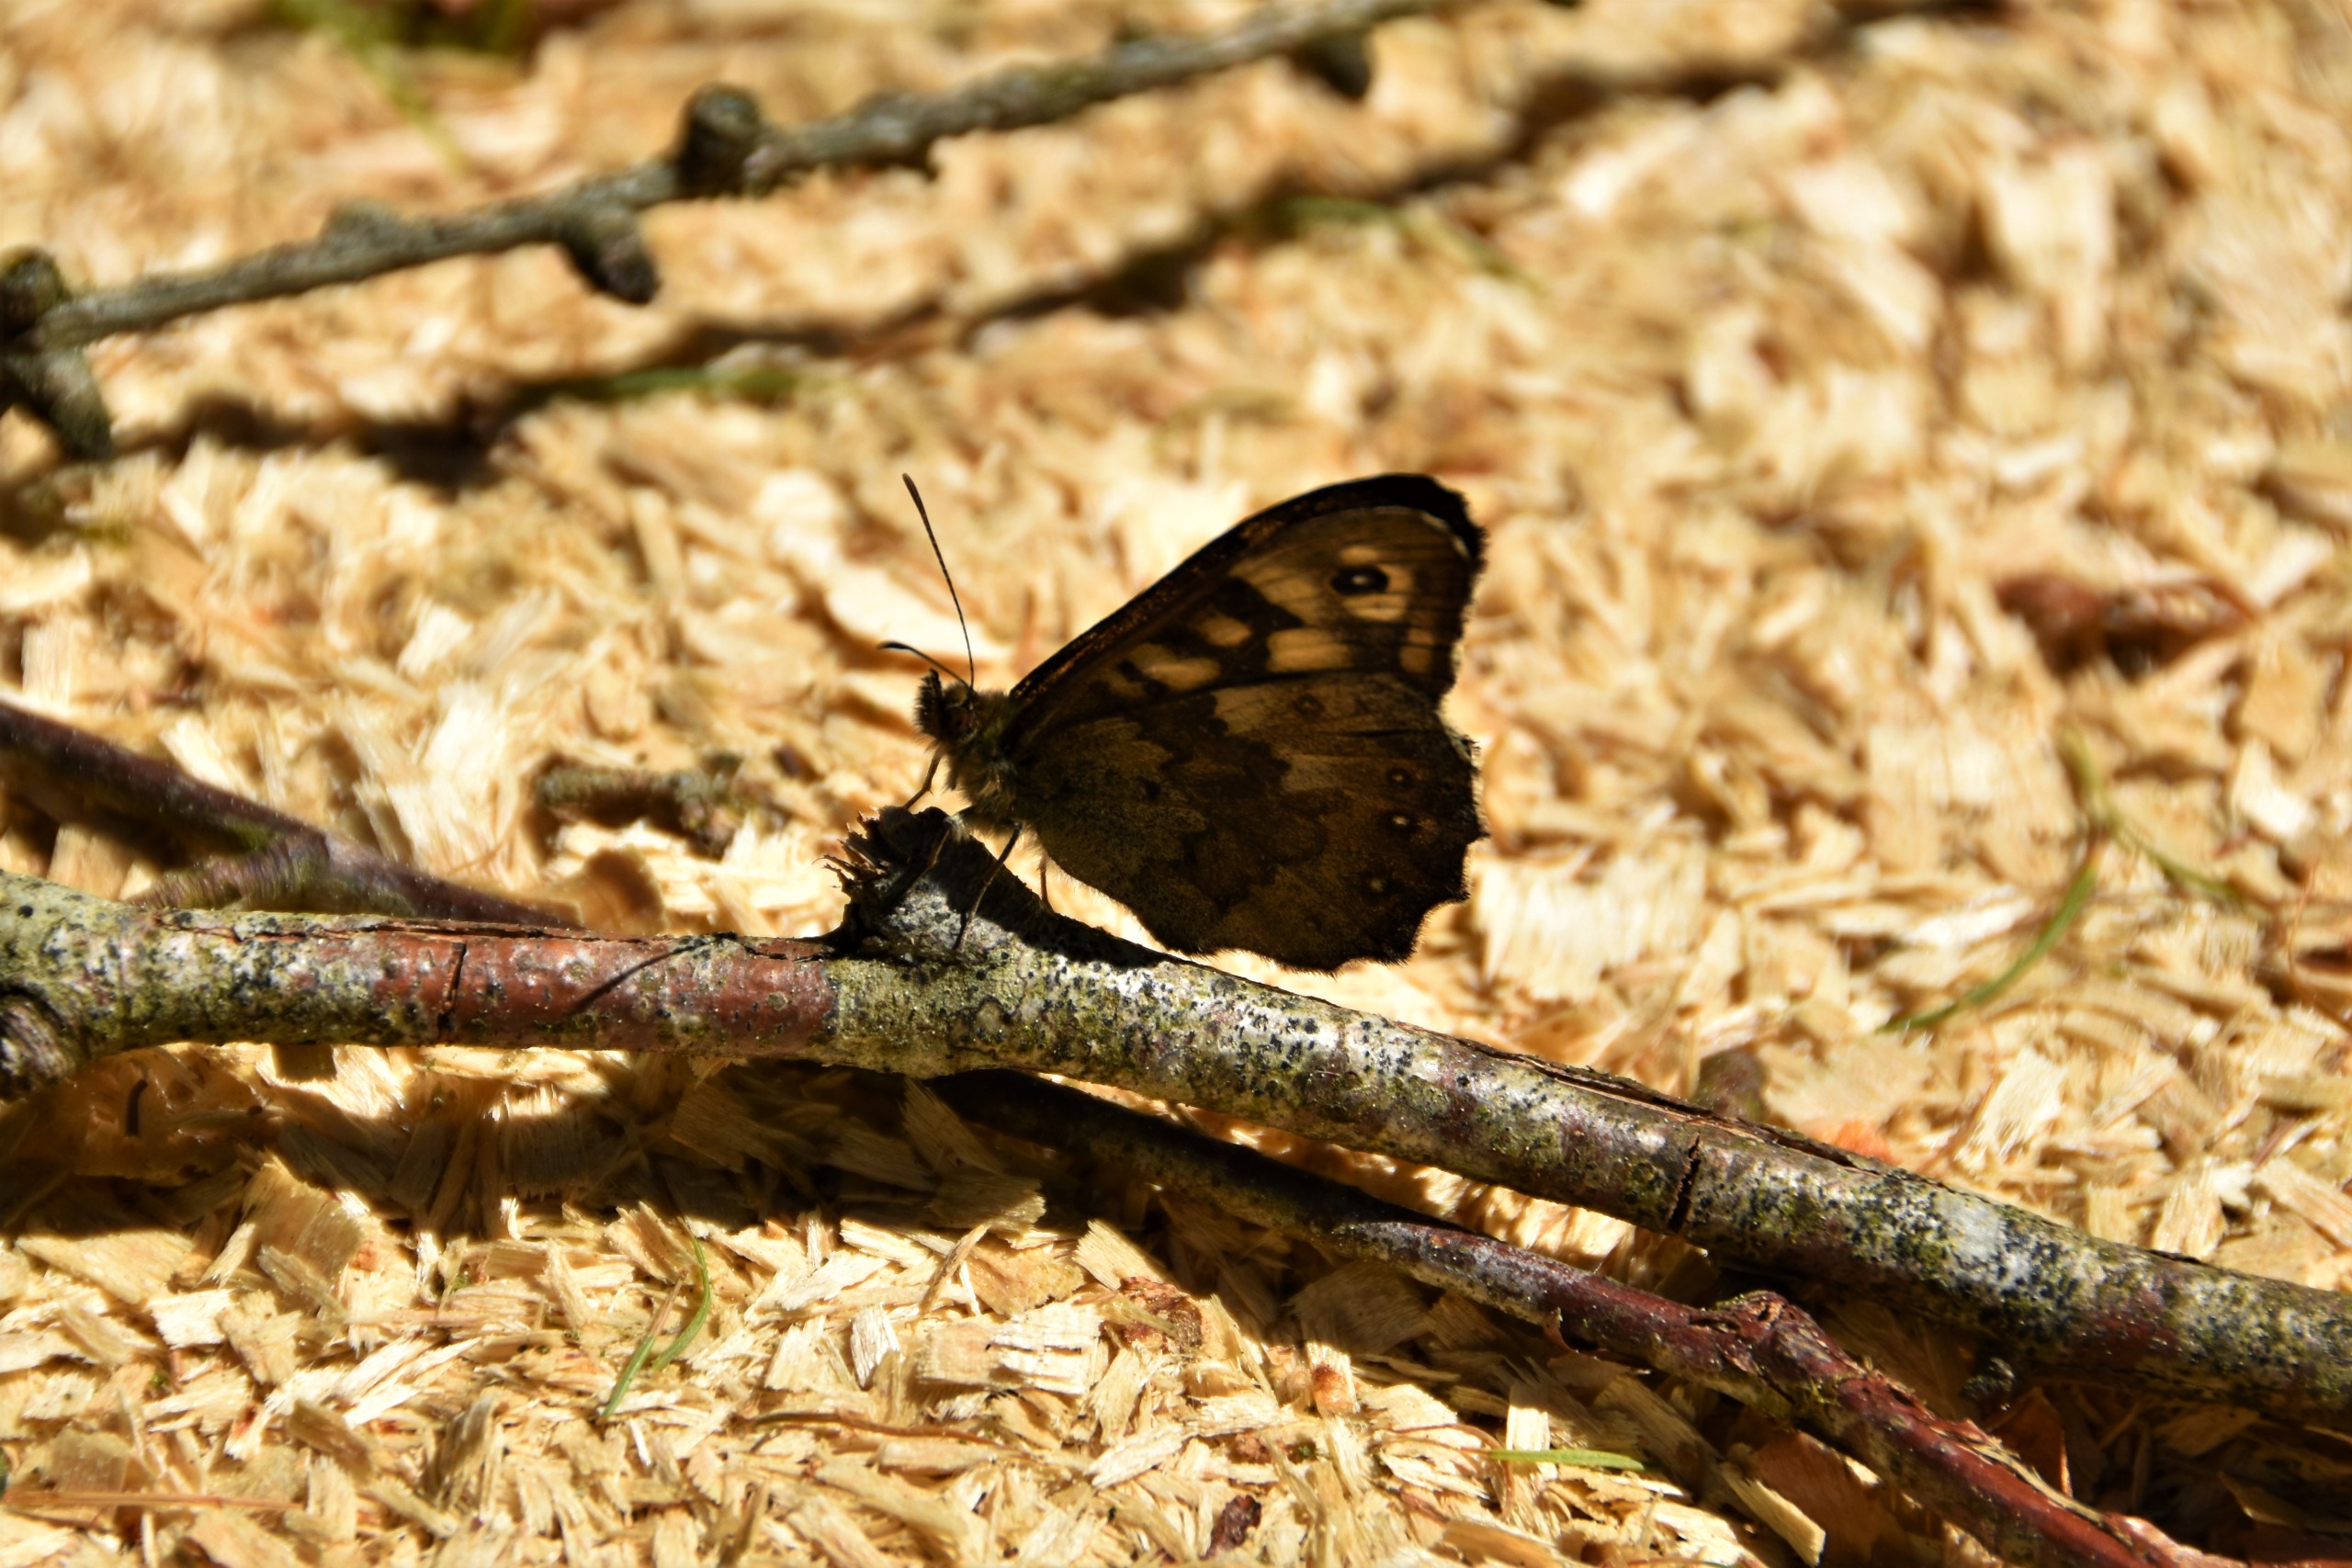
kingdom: Animalia
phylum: Arthropoda
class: Insecta
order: Lepidoptera
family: Nymphalidae
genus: Pararge
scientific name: Pararge aegeria
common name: Skovrandøje
